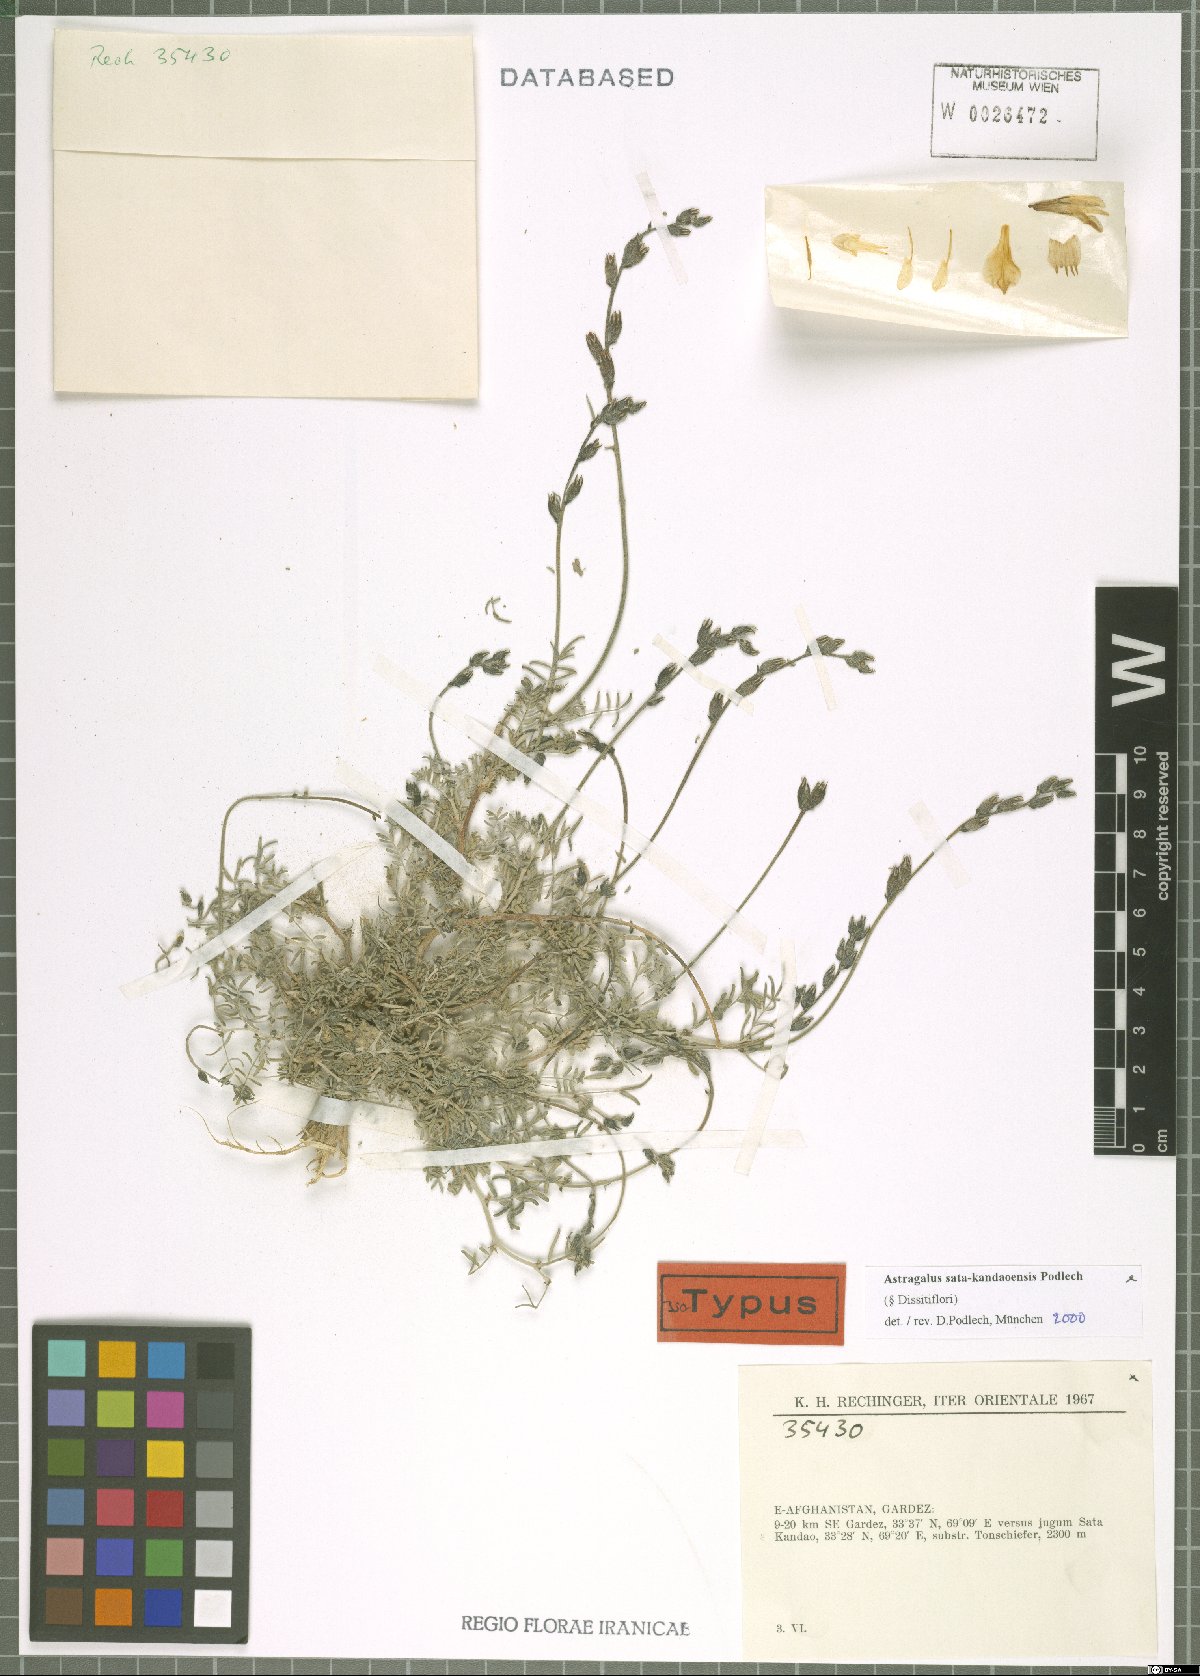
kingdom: Plantae
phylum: Tracheophyta
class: Magnoliopsida
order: Fabales
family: Fabaceae
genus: Astragalus
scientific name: Astragalus sata-kandaoensis
